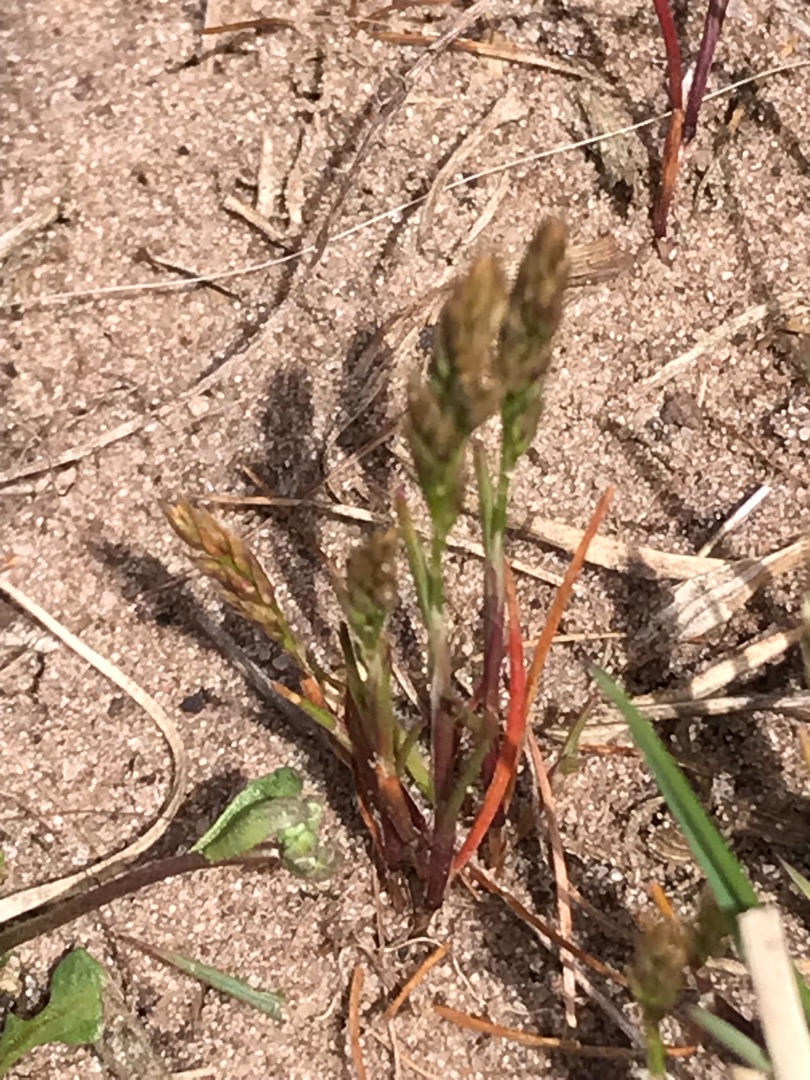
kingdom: Plantae
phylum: Tracheophyta
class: Liliopsida
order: Poales
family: Poaceae
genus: Aira
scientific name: Aira praecox
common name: Tidlig dværgbunke
